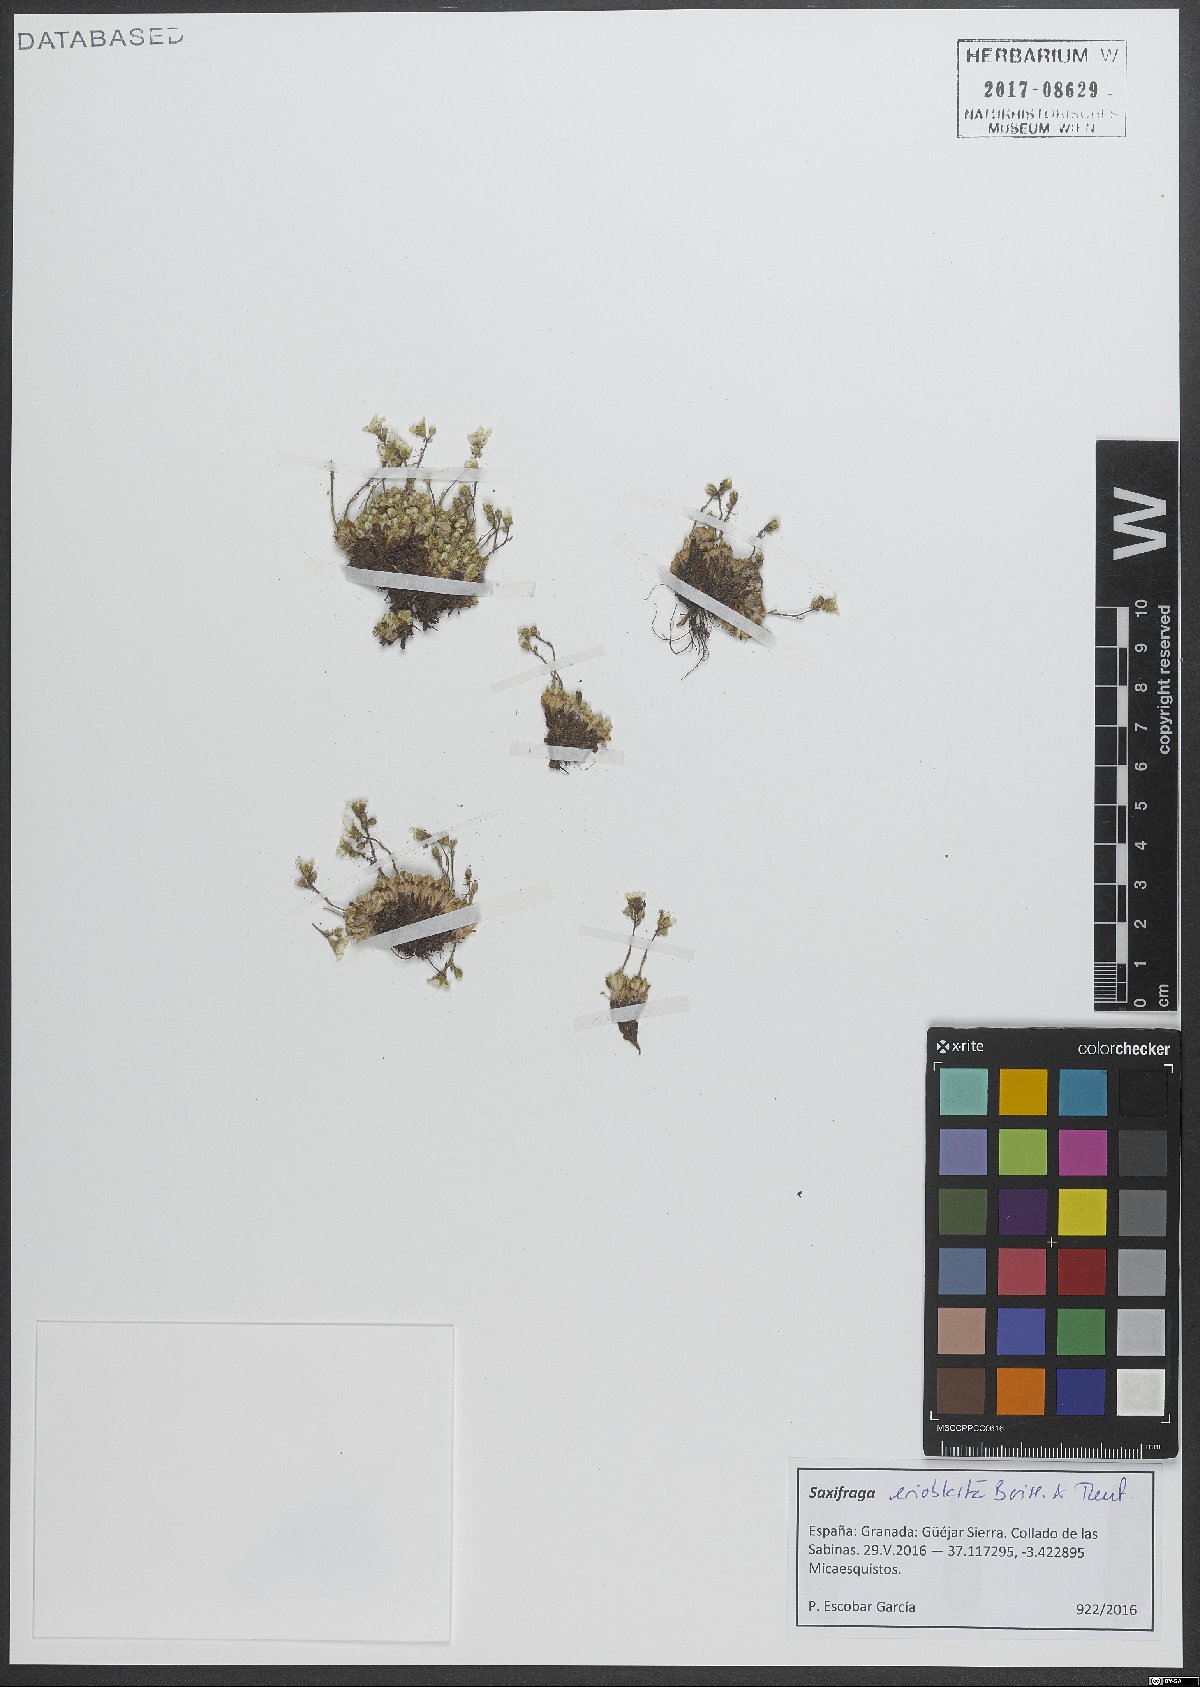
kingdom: Plantae
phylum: Tracheophyta
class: Magnoliopsida
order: Saxifragales
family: Saxifragaceae
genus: Saxifraga
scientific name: Saxifraga erioblasta
